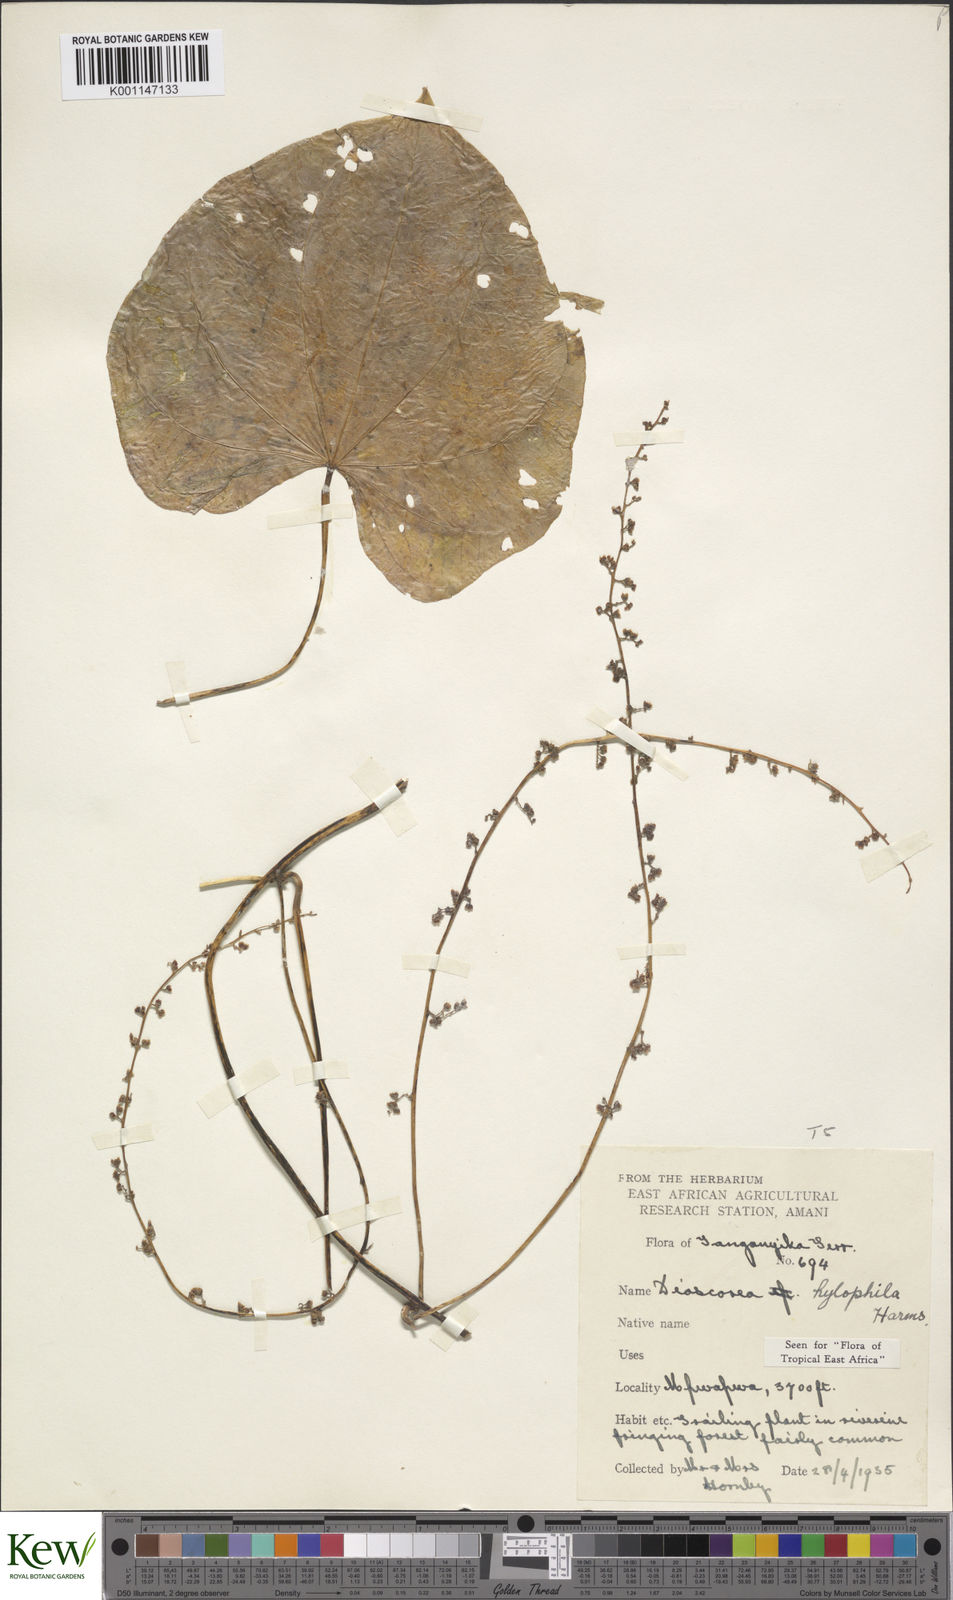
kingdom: Plantae
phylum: Tracheophyta
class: Liliopsida
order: Dioscoreales
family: Dioscoreaceae
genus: Dioscorea
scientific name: Dioscorea
